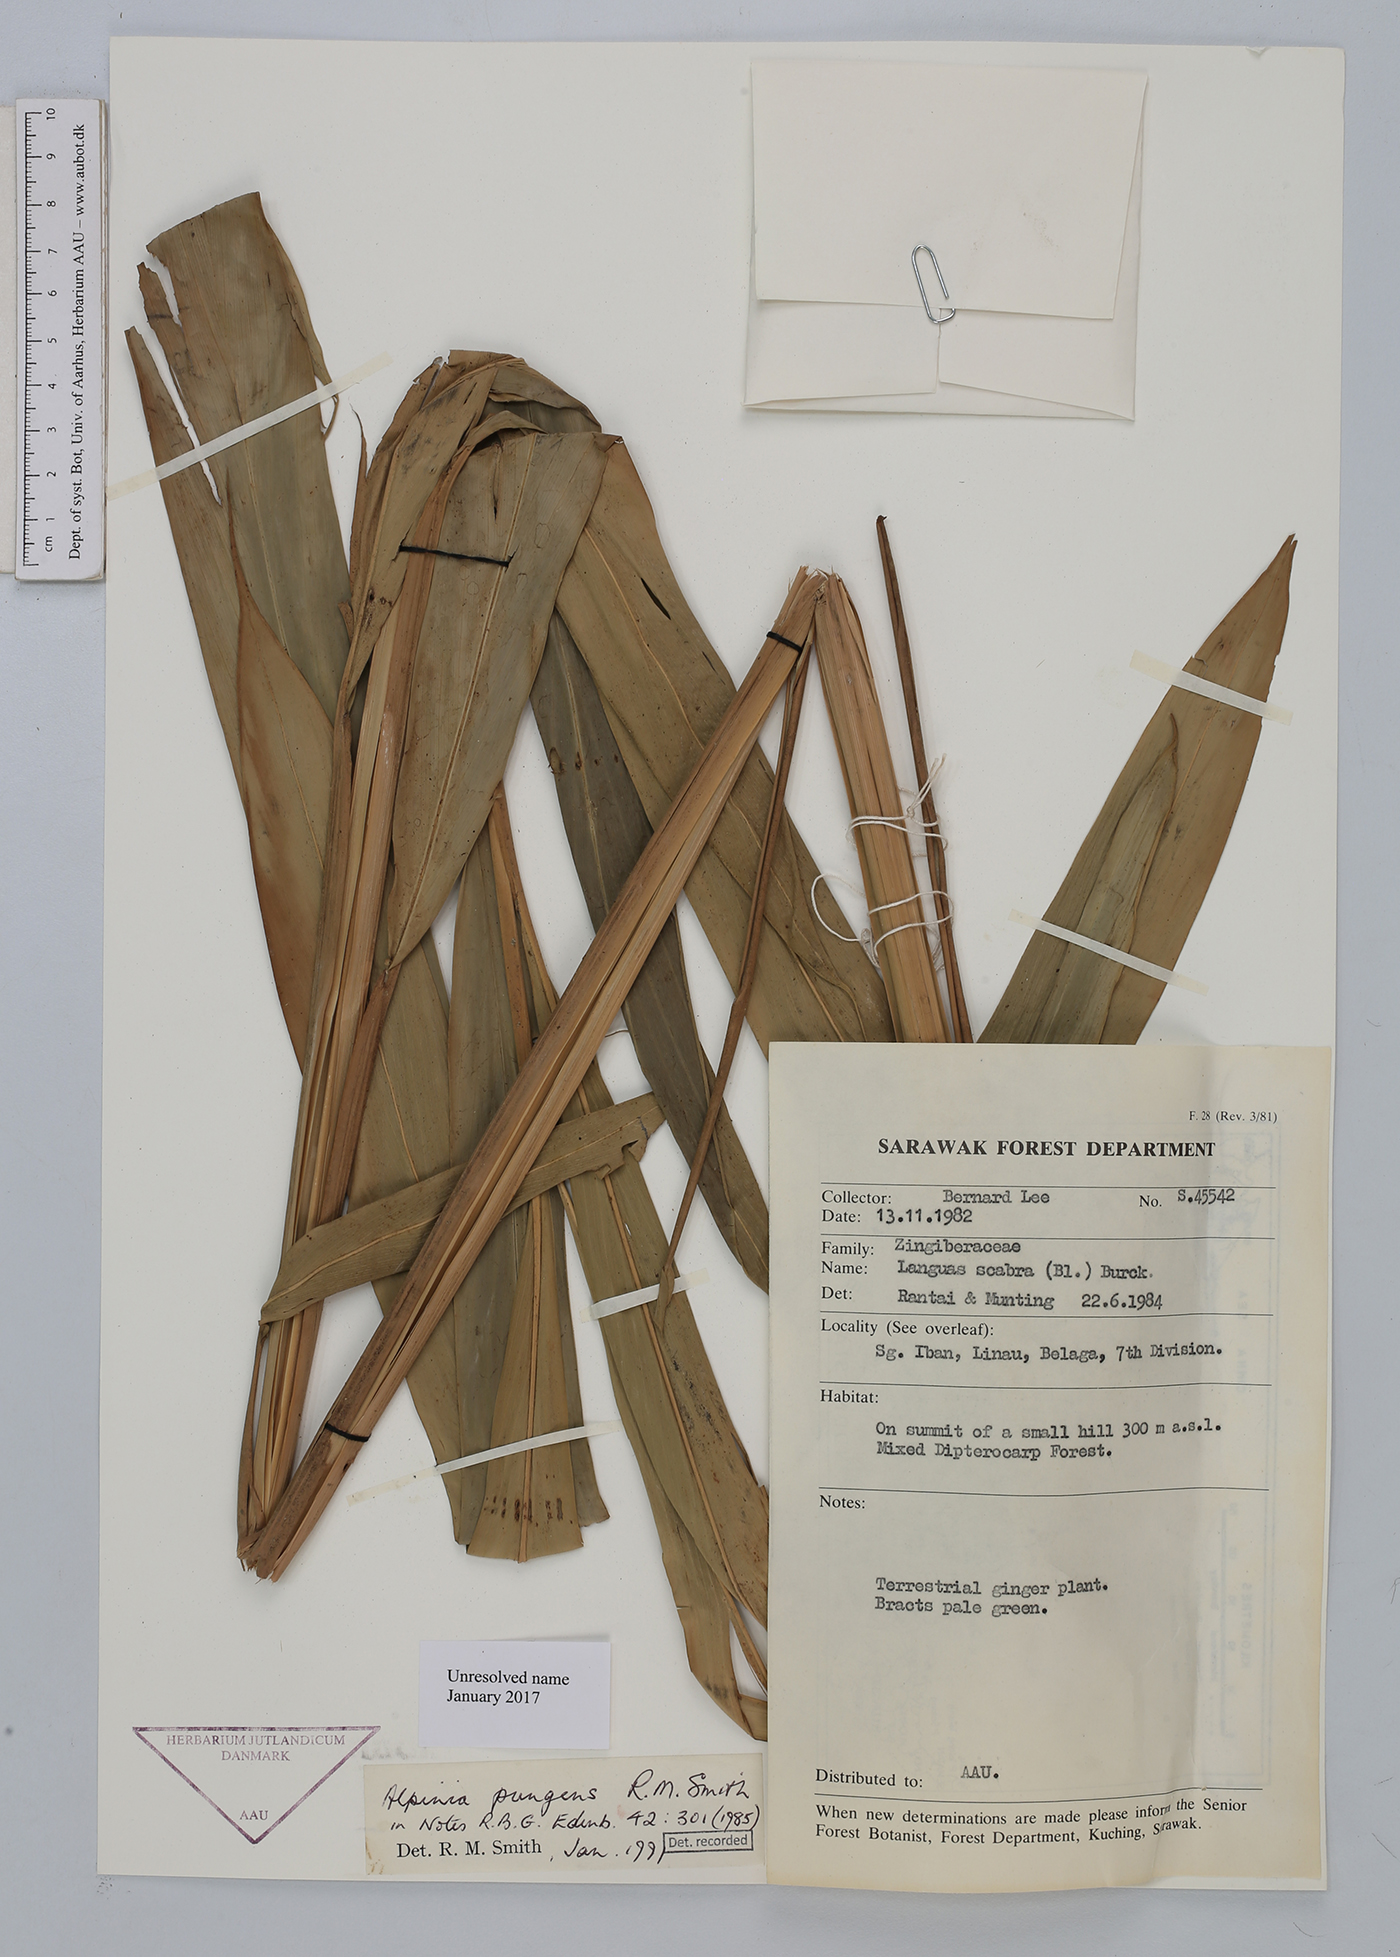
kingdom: Plantae
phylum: Tracheophyta
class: Liliopsida
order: Zingiberales
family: Zingiberaceae
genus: Alpinia
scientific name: Alpinia
